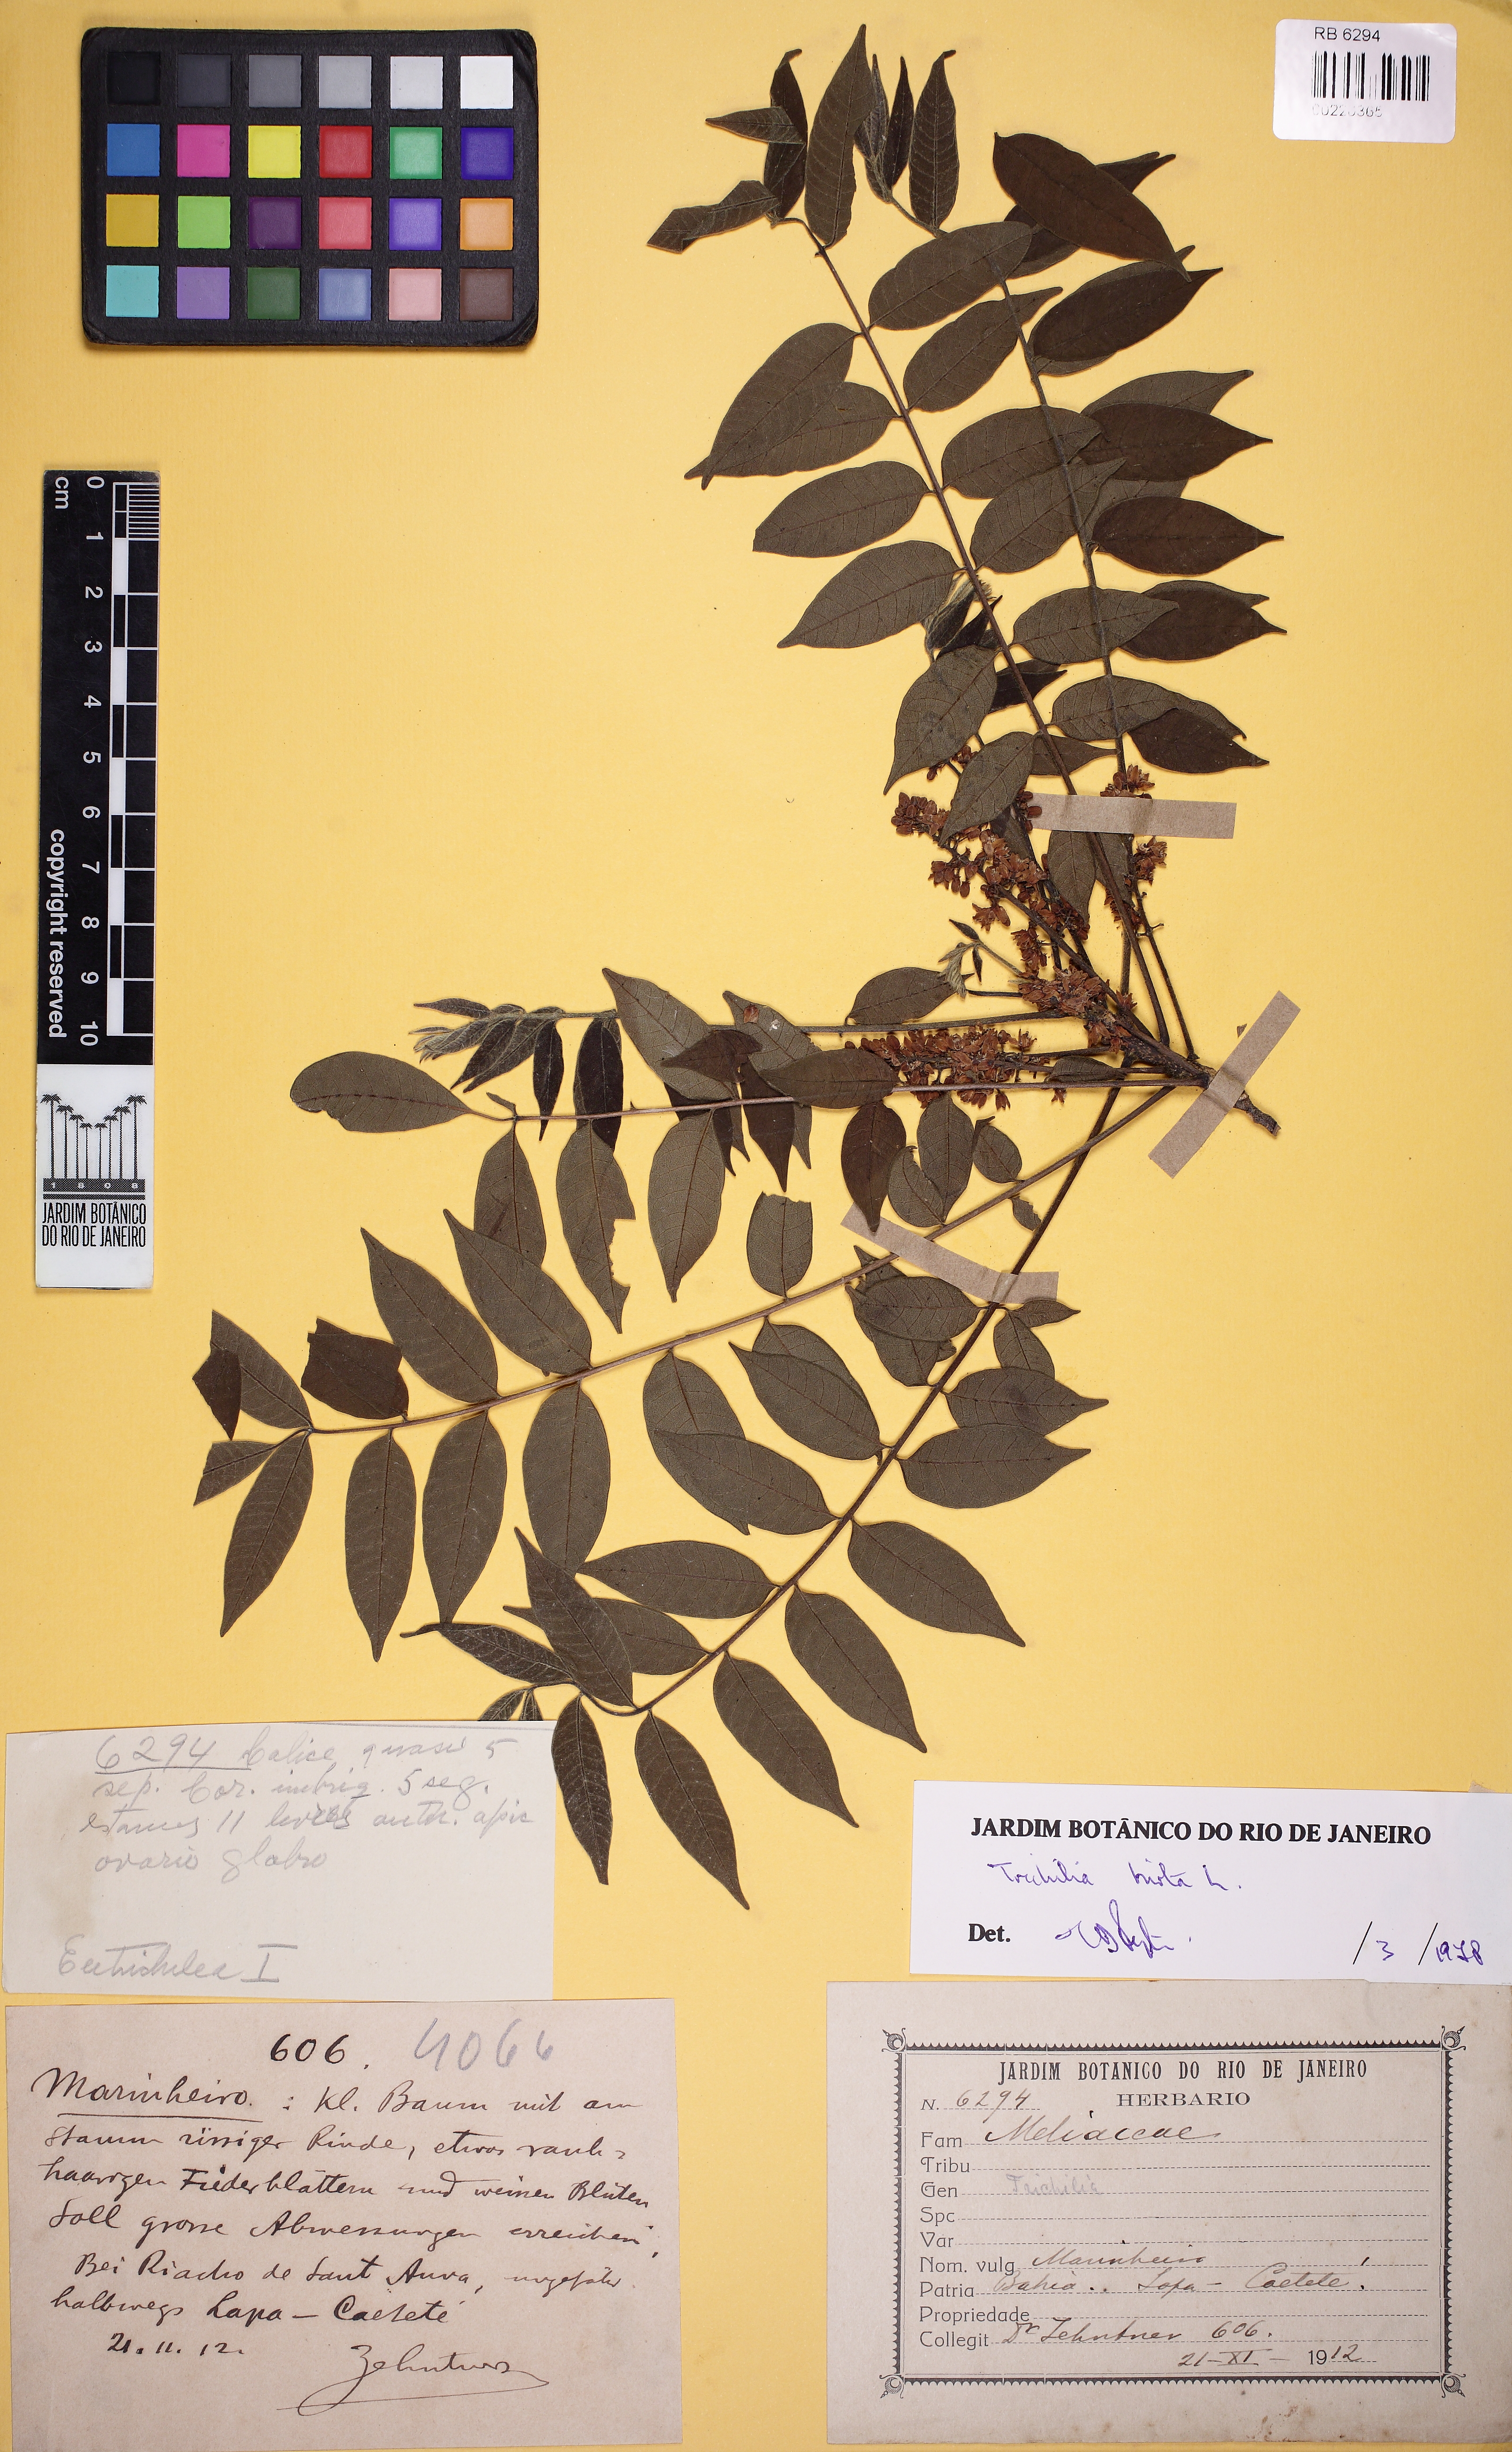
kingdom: Plantae
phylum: Tracheophyta
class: Magnoliopsida
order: Sapindales
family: Meliaceae
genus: Trichilia
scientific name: Trichilia hirta
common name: Red-cedar
